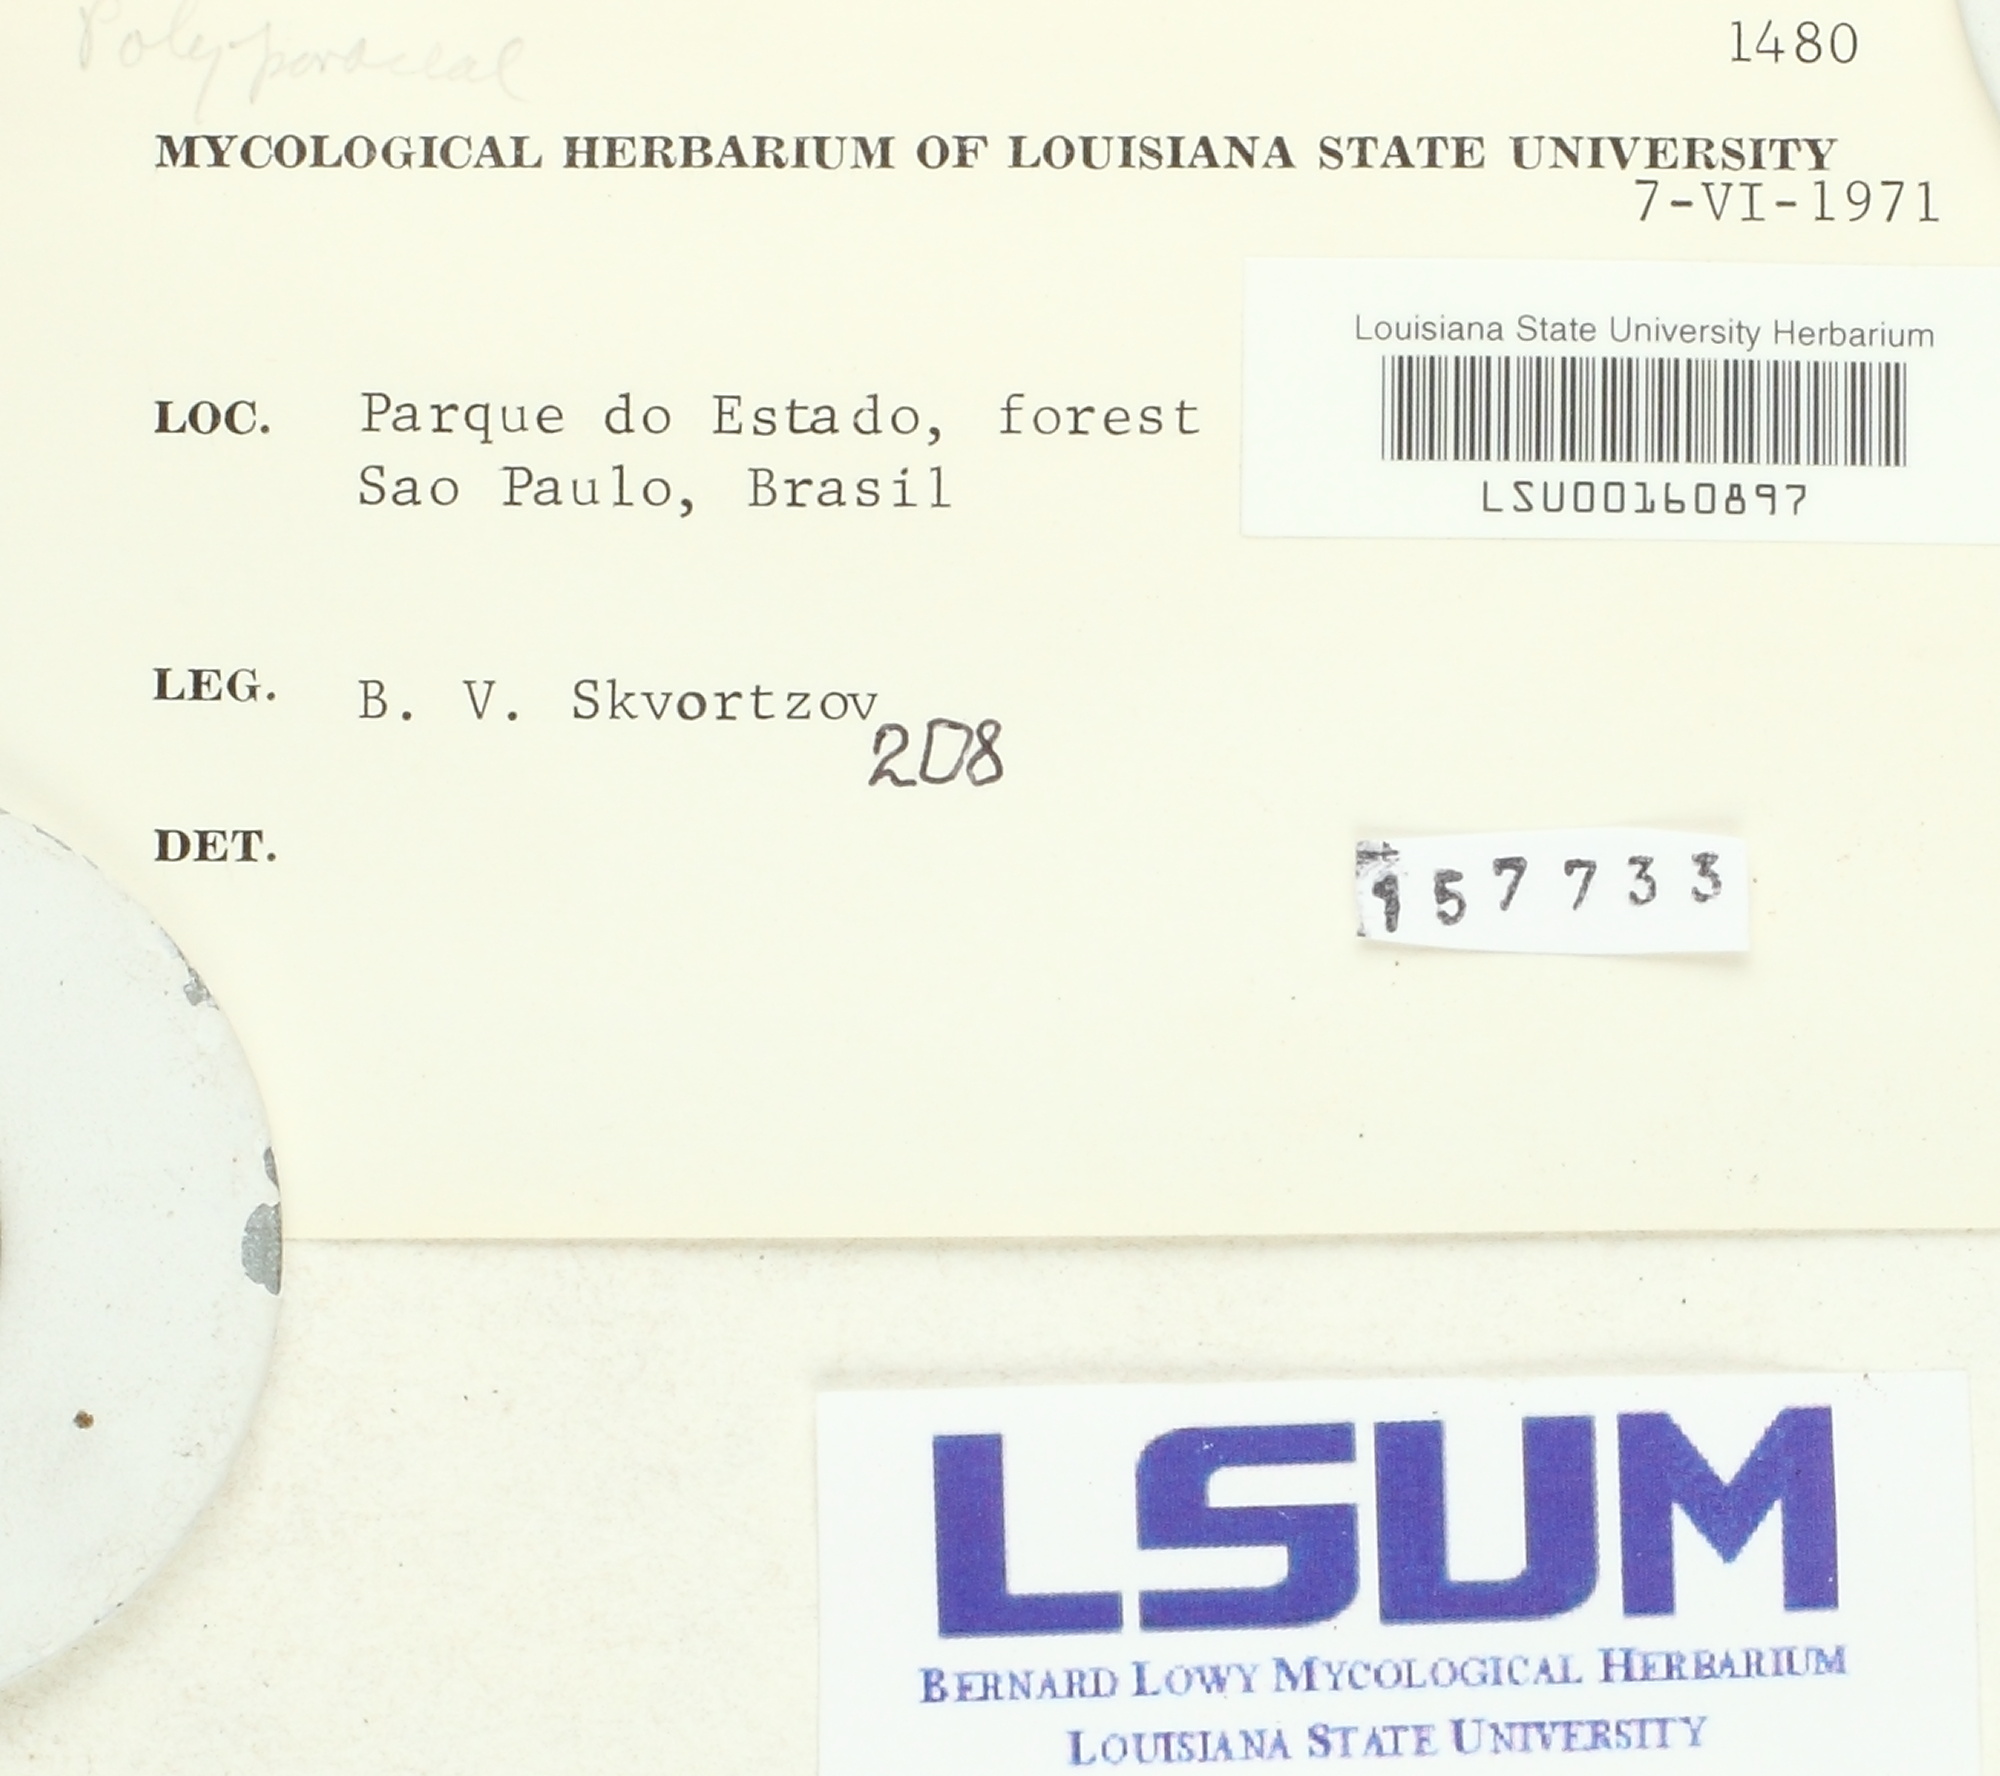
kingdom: Fungi
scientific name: Fungi
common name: Fungi
